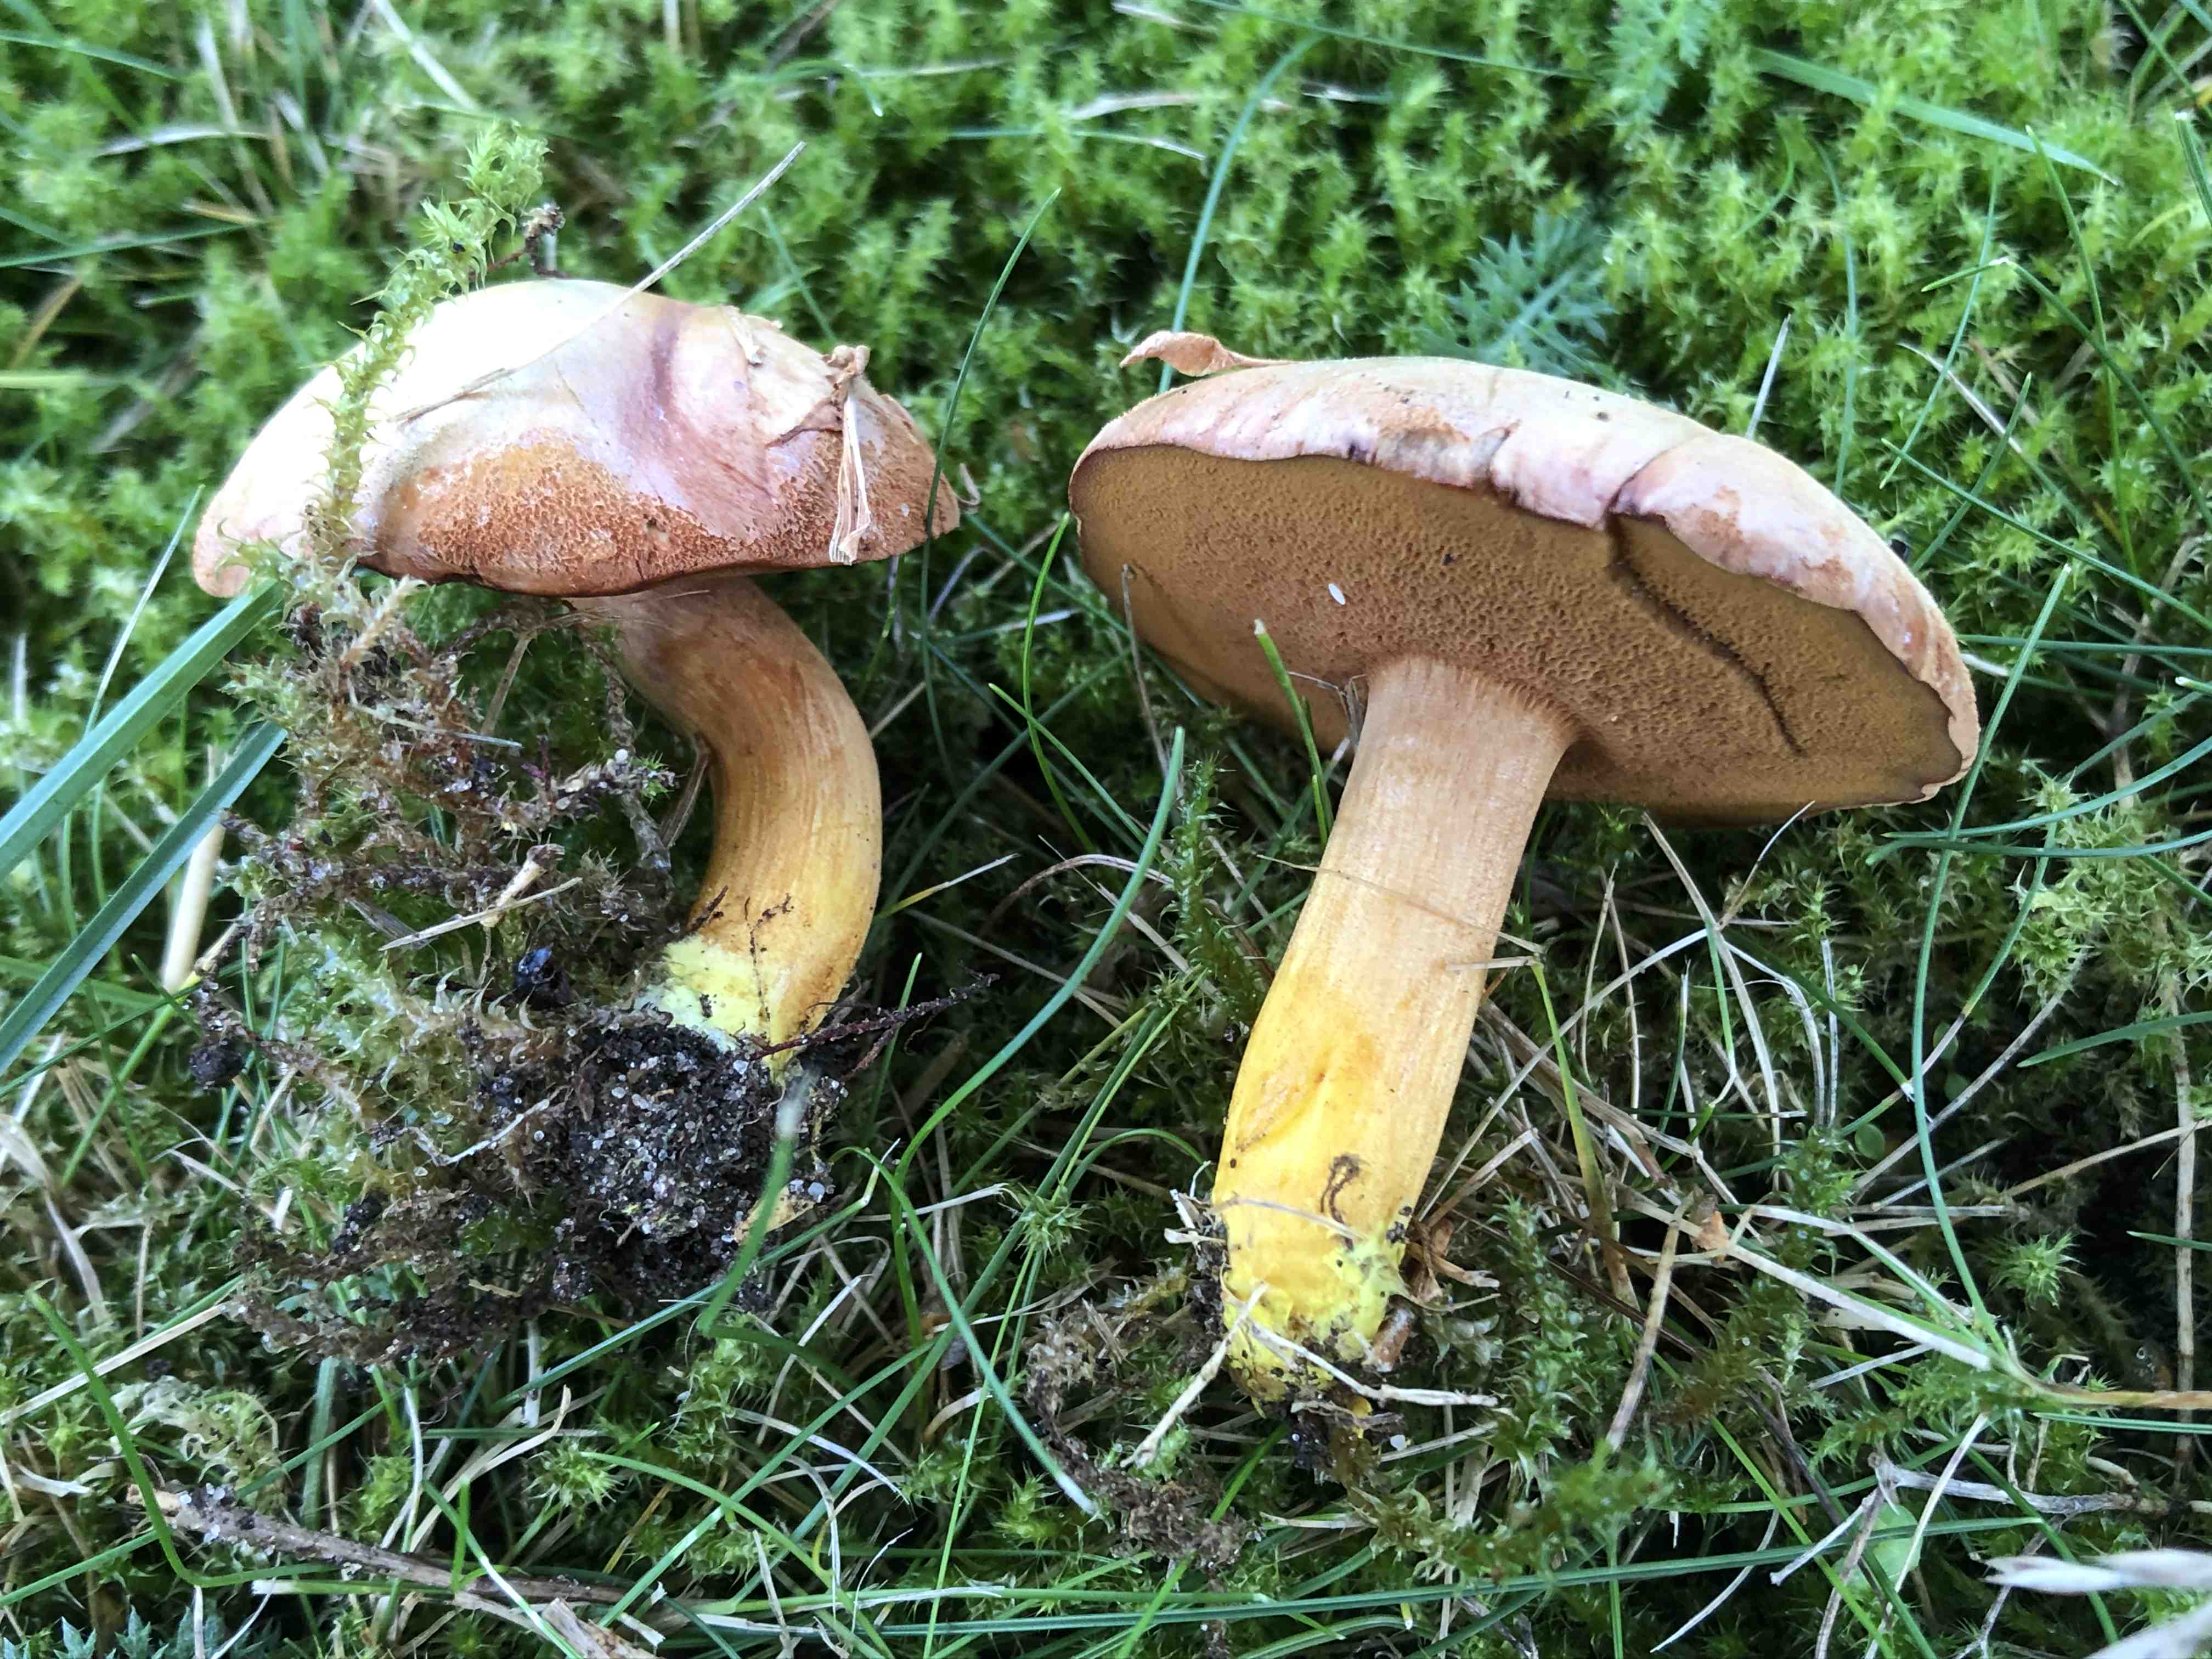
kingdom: Fungi
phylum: Basidiomycota
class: Agaricomycetes
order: Boletales
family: Boletaceae
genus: Chalciporus
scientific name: Chalciporus piperatus
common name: peberrørhat
